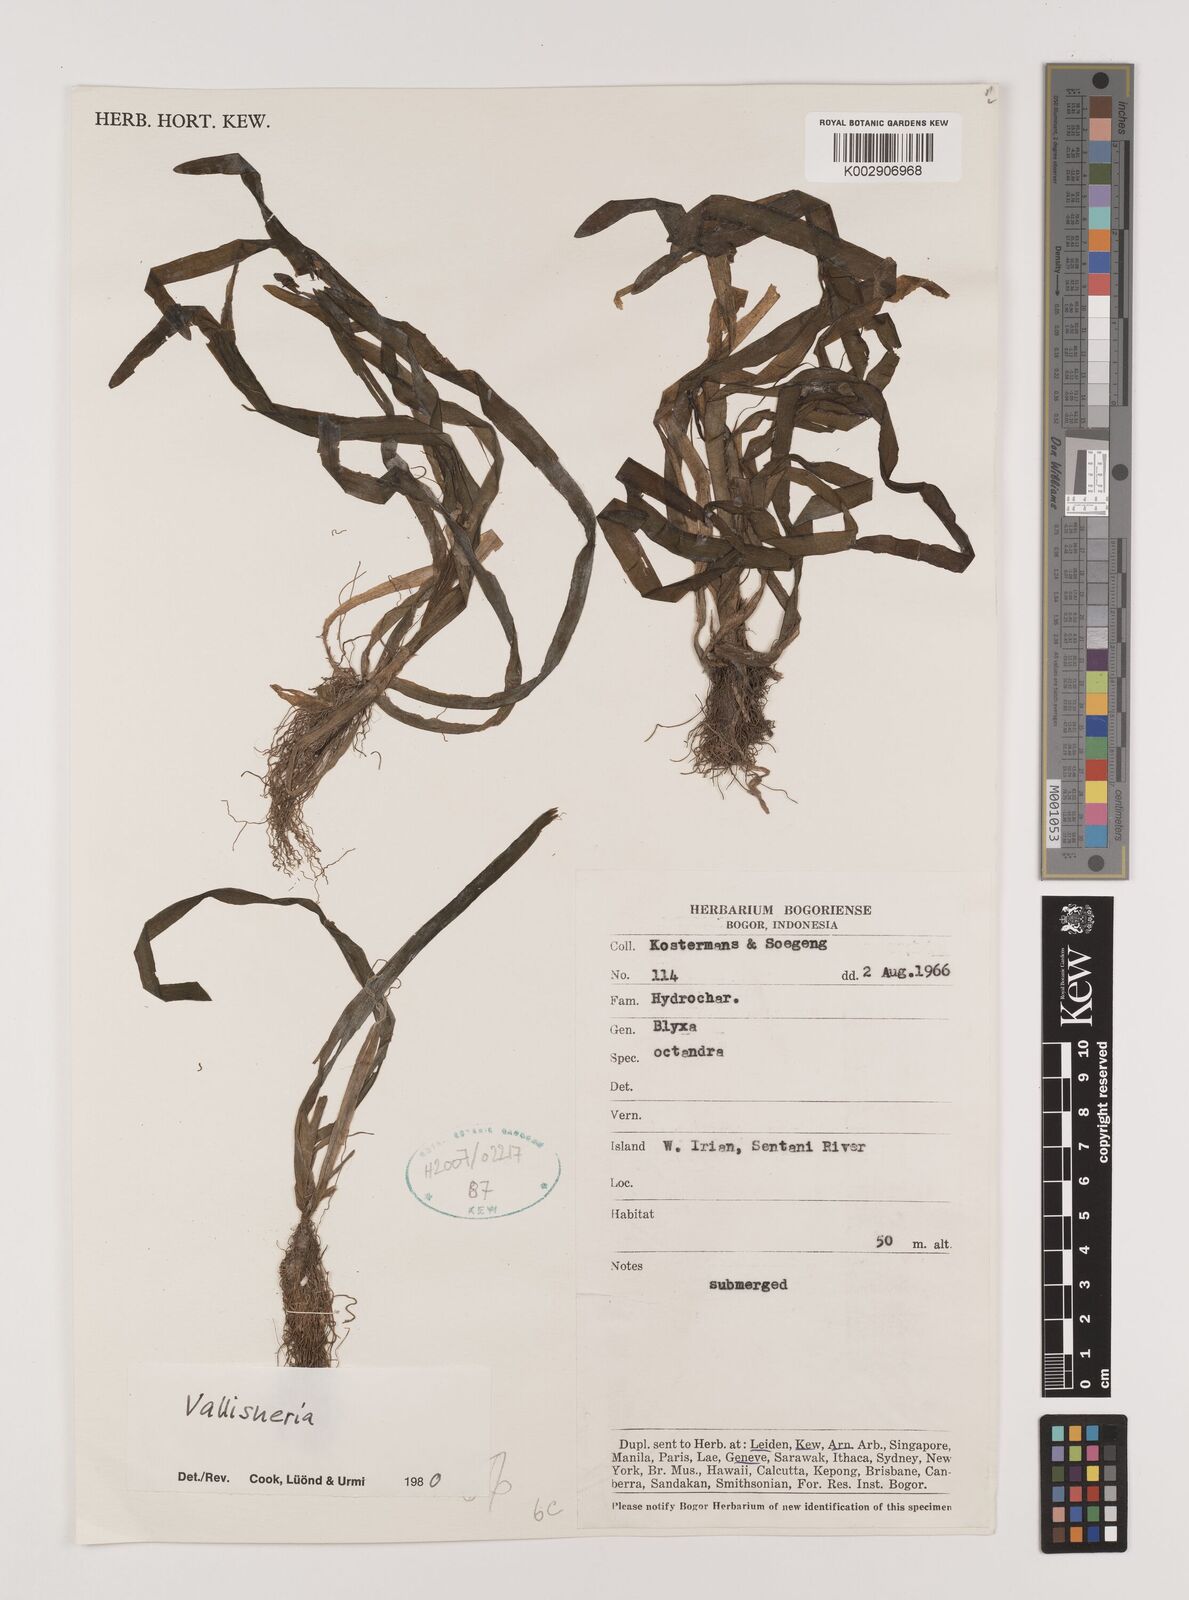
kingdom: Plantae
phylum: Tracheophyta
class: Liliopsida
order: Alismatales
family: Hydrocharitaceae
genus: Vallisneria
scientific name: Vallisneria
